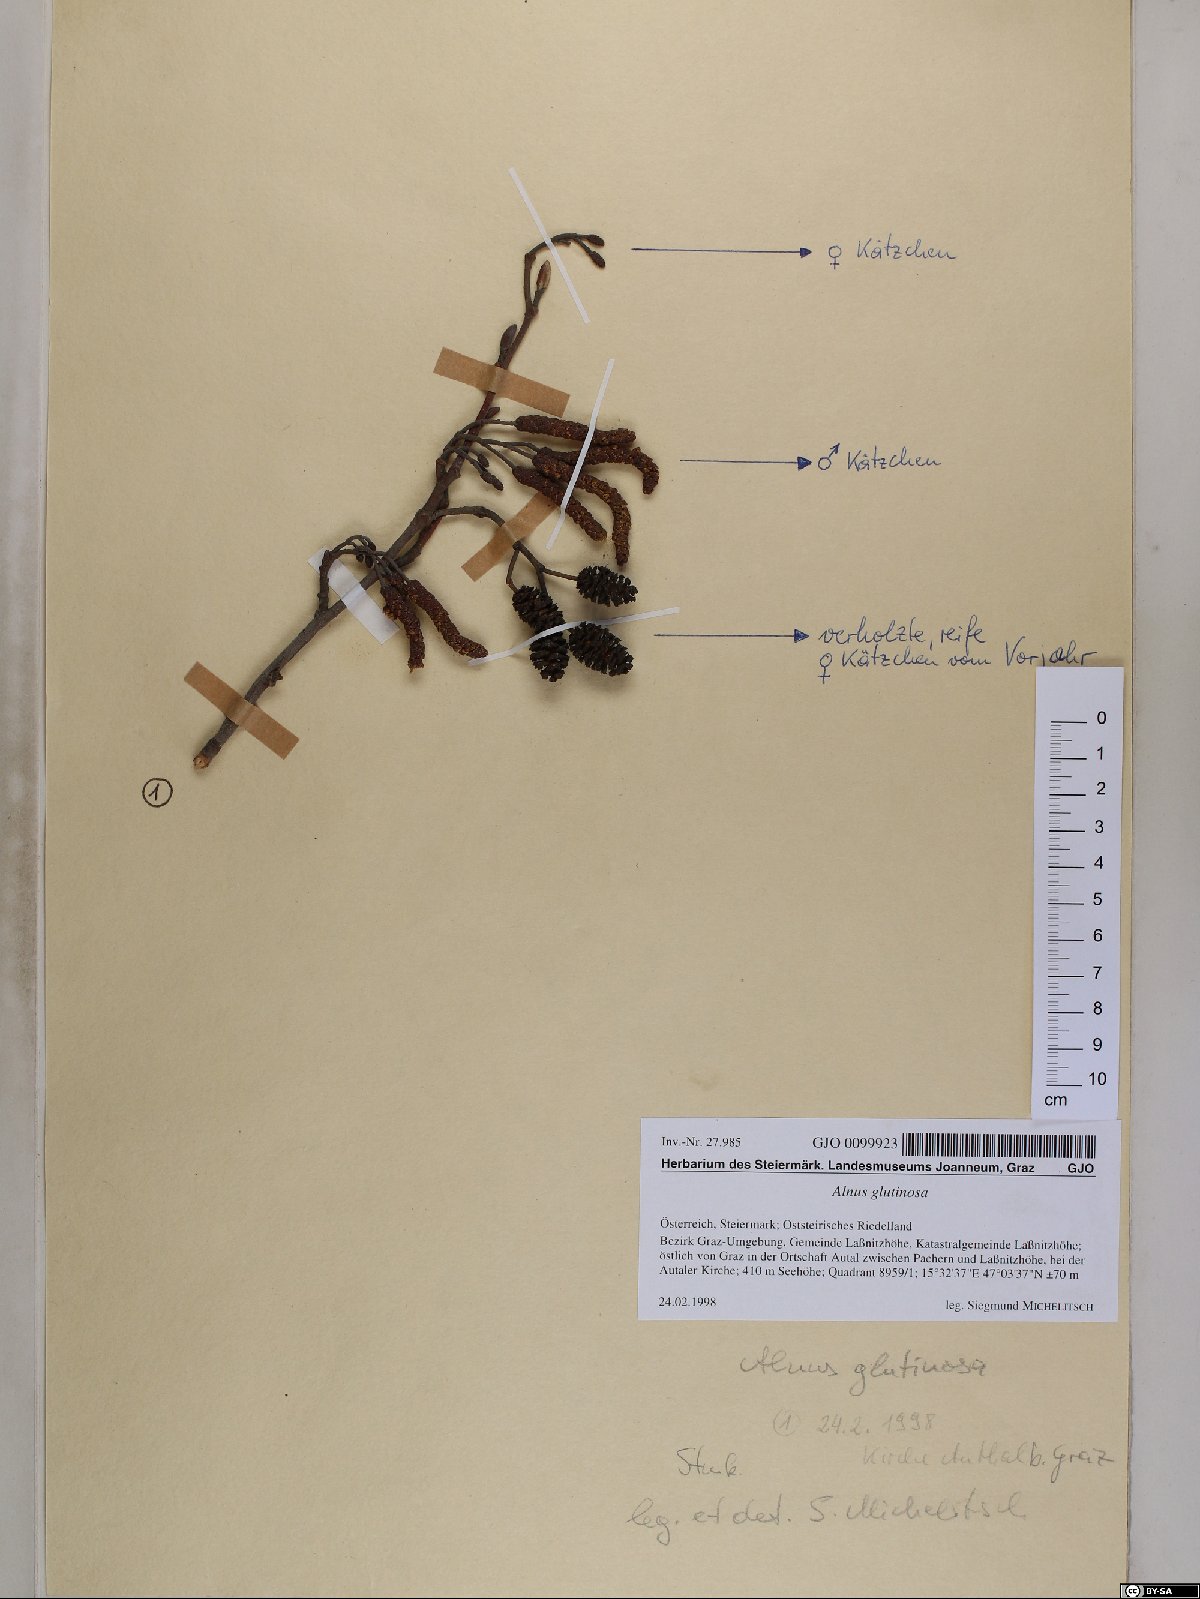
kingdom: Plantae
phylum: Tracheophyta
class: Magnoliopsida
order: Fagales
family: Betulaceae
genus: Alnus
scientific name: Alnus glutinosa
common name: Black alder
